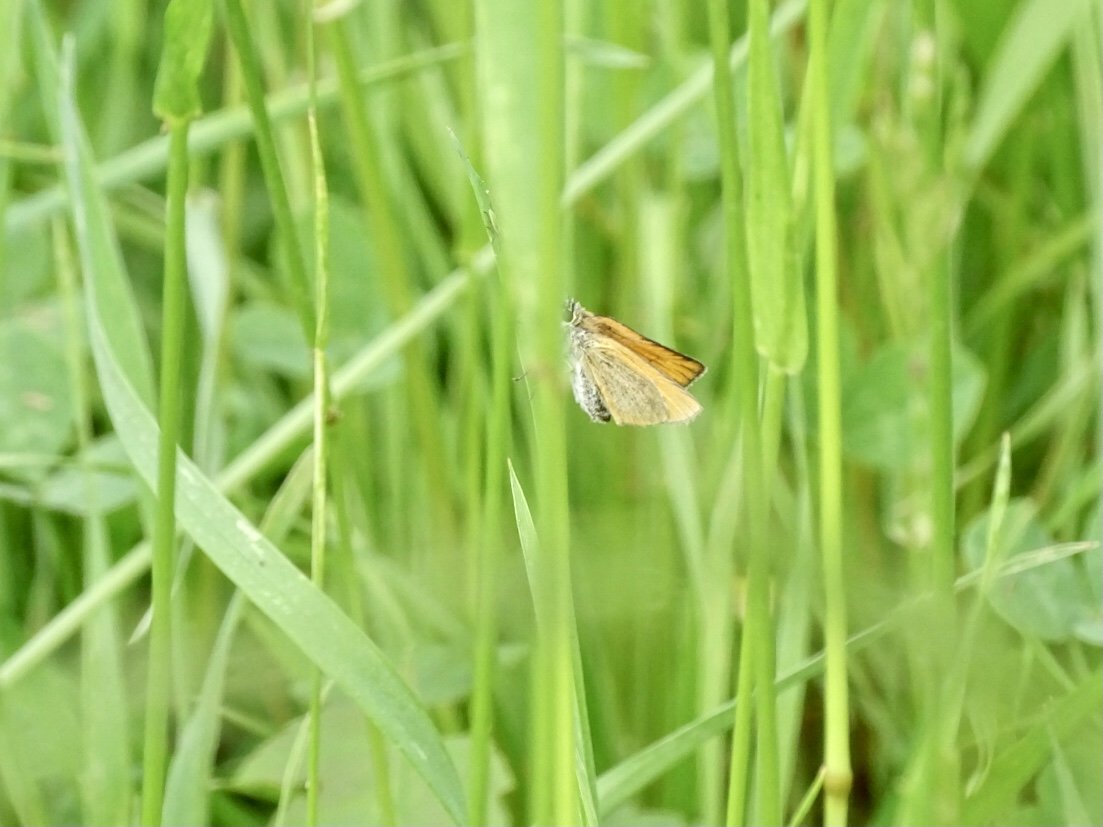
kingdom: Animalia
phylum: Arthropoda
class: Insecta
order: Lepidoptera
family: Hesperiidae
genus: Thymelicus
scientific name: Thymelicus lineola
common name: European Skipper
